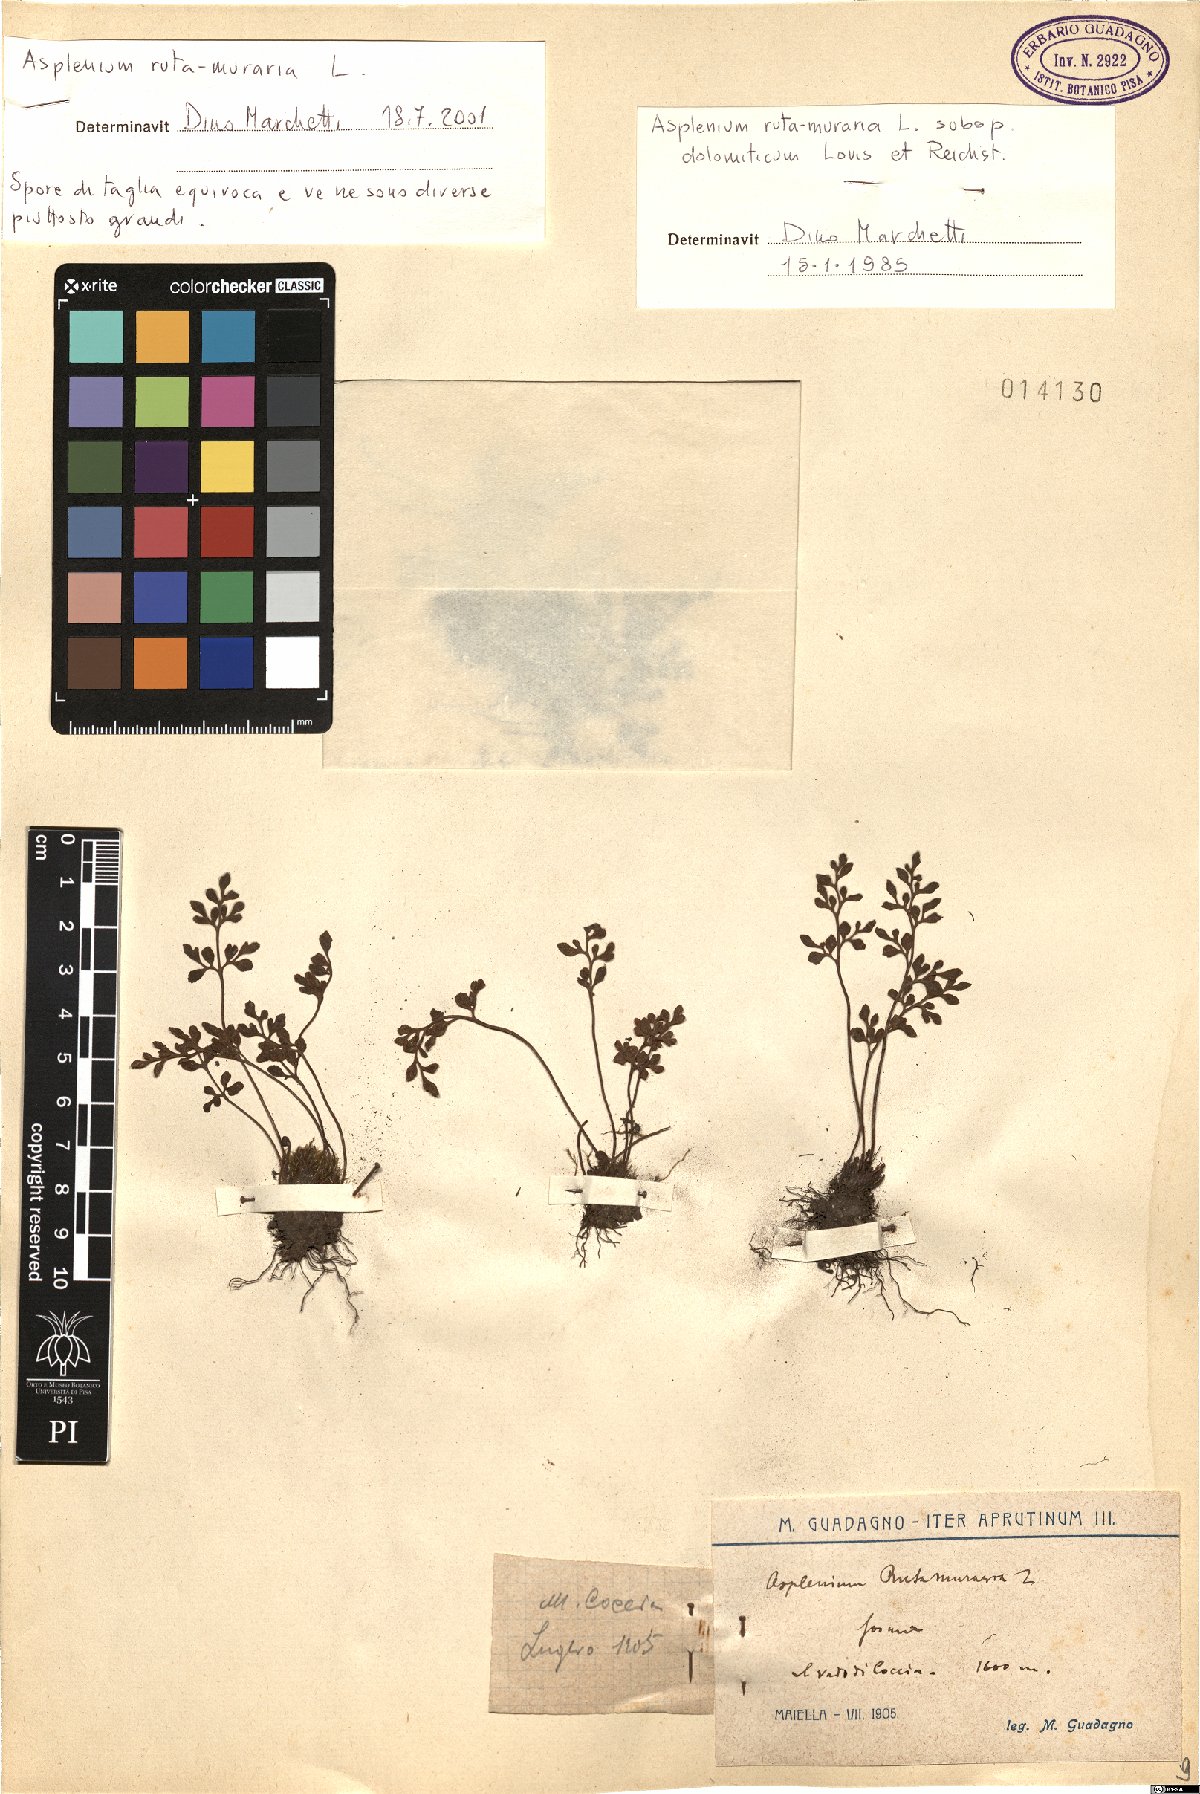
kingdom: Plantae
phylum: Tracheophyta
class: Polypodiopsida
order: Polypodiales
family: Aspleniaceae
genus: Asplenium
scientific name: Asplenium ruta-muraria
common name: Wall-rue
